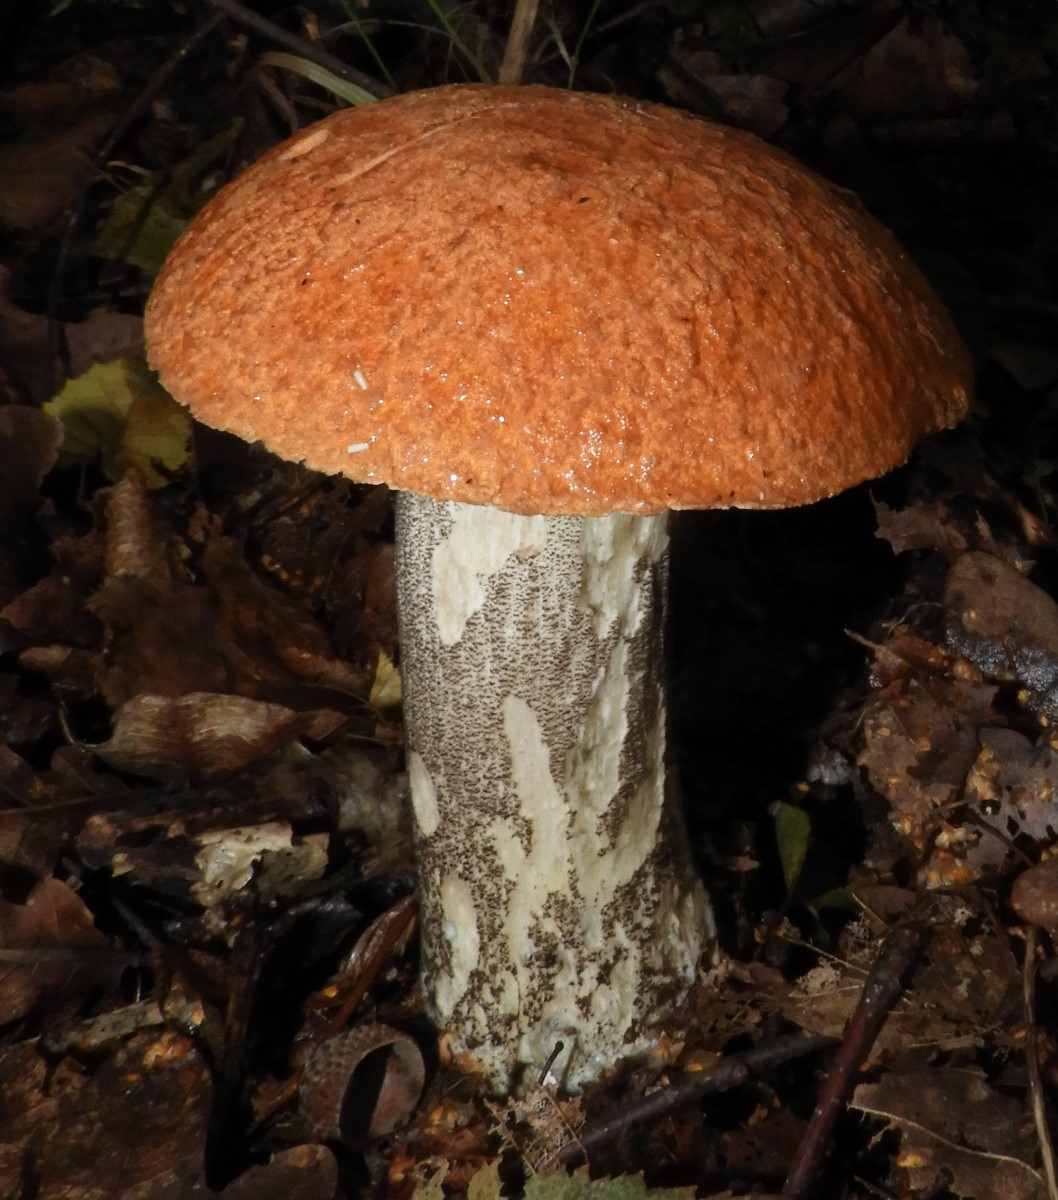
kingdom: Fungi
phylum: Basidiomycota
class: Agaricomycetes
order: Boletales
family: Boletaceae
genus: Leccinum
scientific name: Leccinum versipelle
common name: orange skælrørhat
